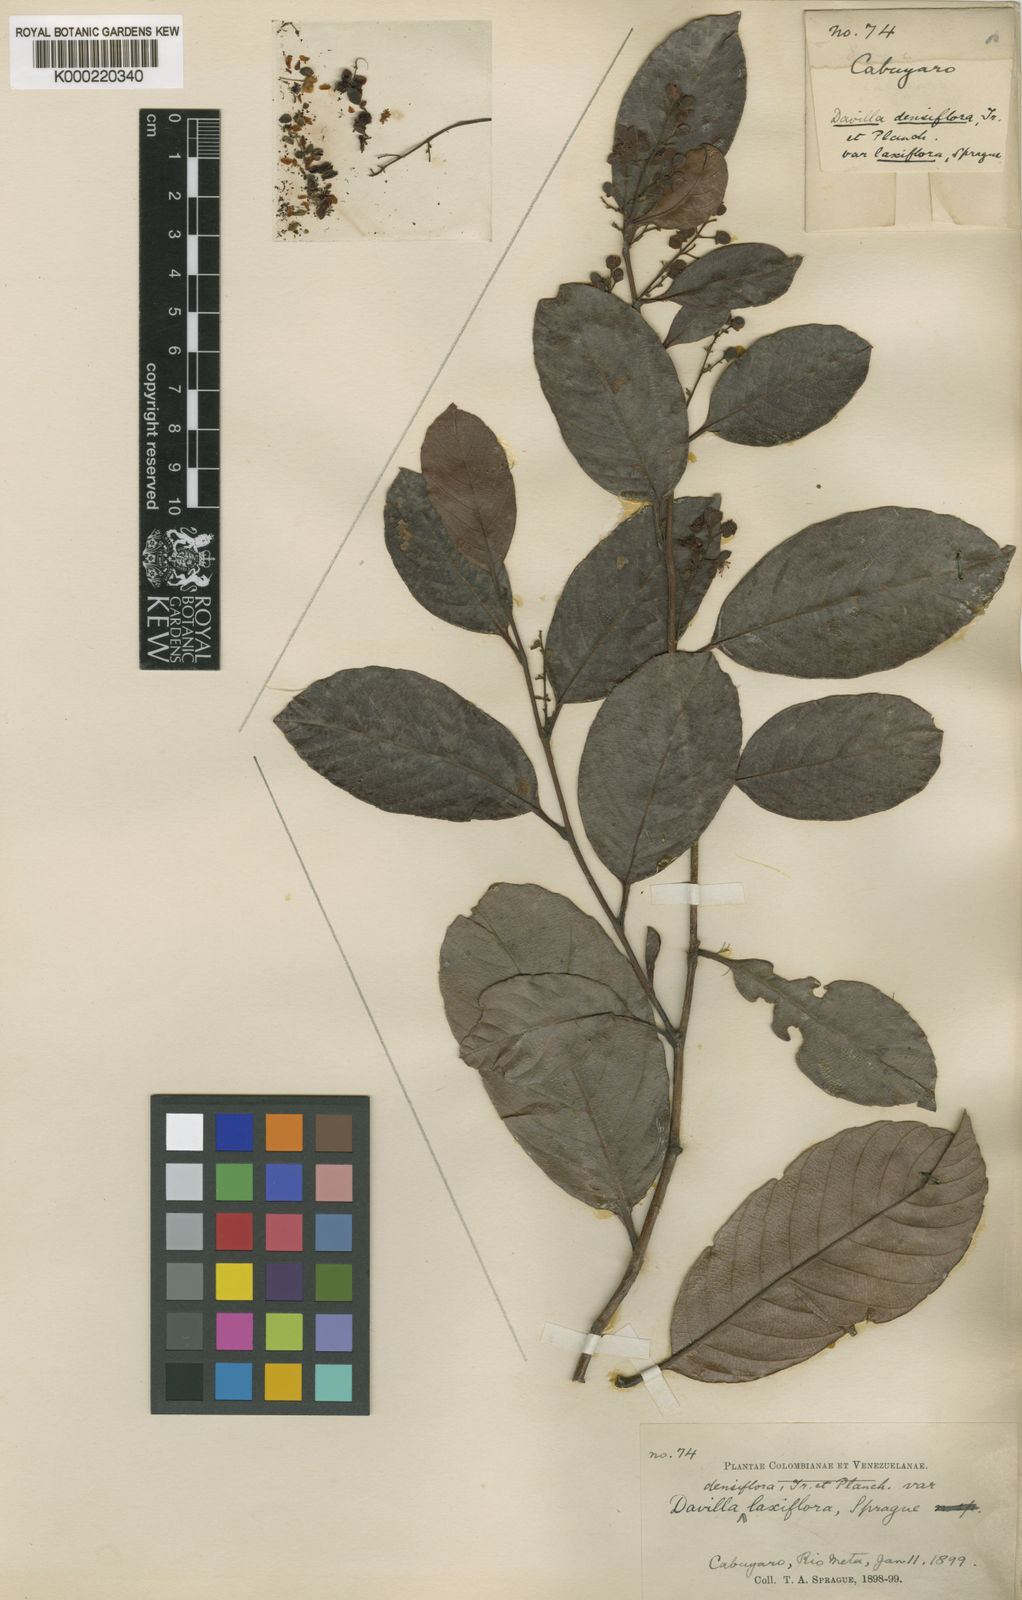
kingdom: Plantae
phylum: Tracheophyta
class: Magnoliopsida
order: Dilleniales
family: Dilleniaceae
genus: Davilla
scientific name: Davilla nitida
